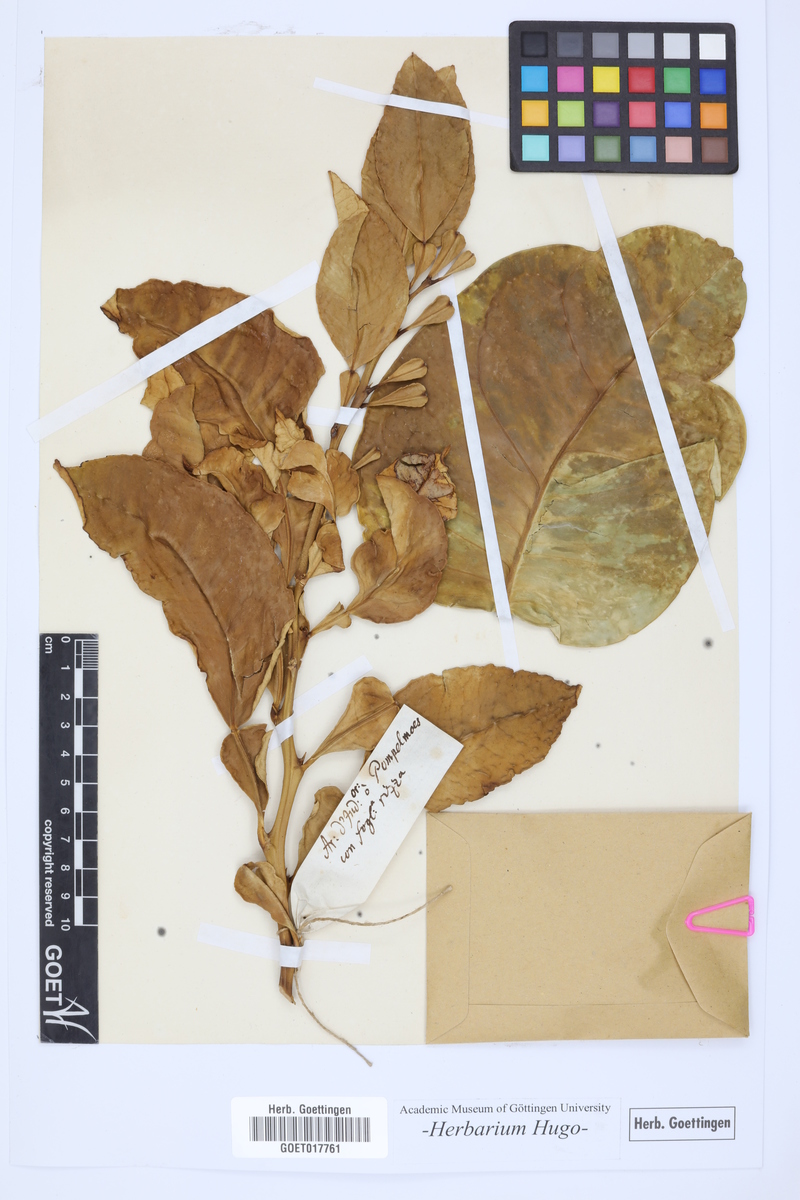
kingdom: Plantae
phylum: Tracheophyta
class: Magnoliopsida
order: Sapindales
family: Rutaceae
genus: Citrus
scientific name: Citrus
